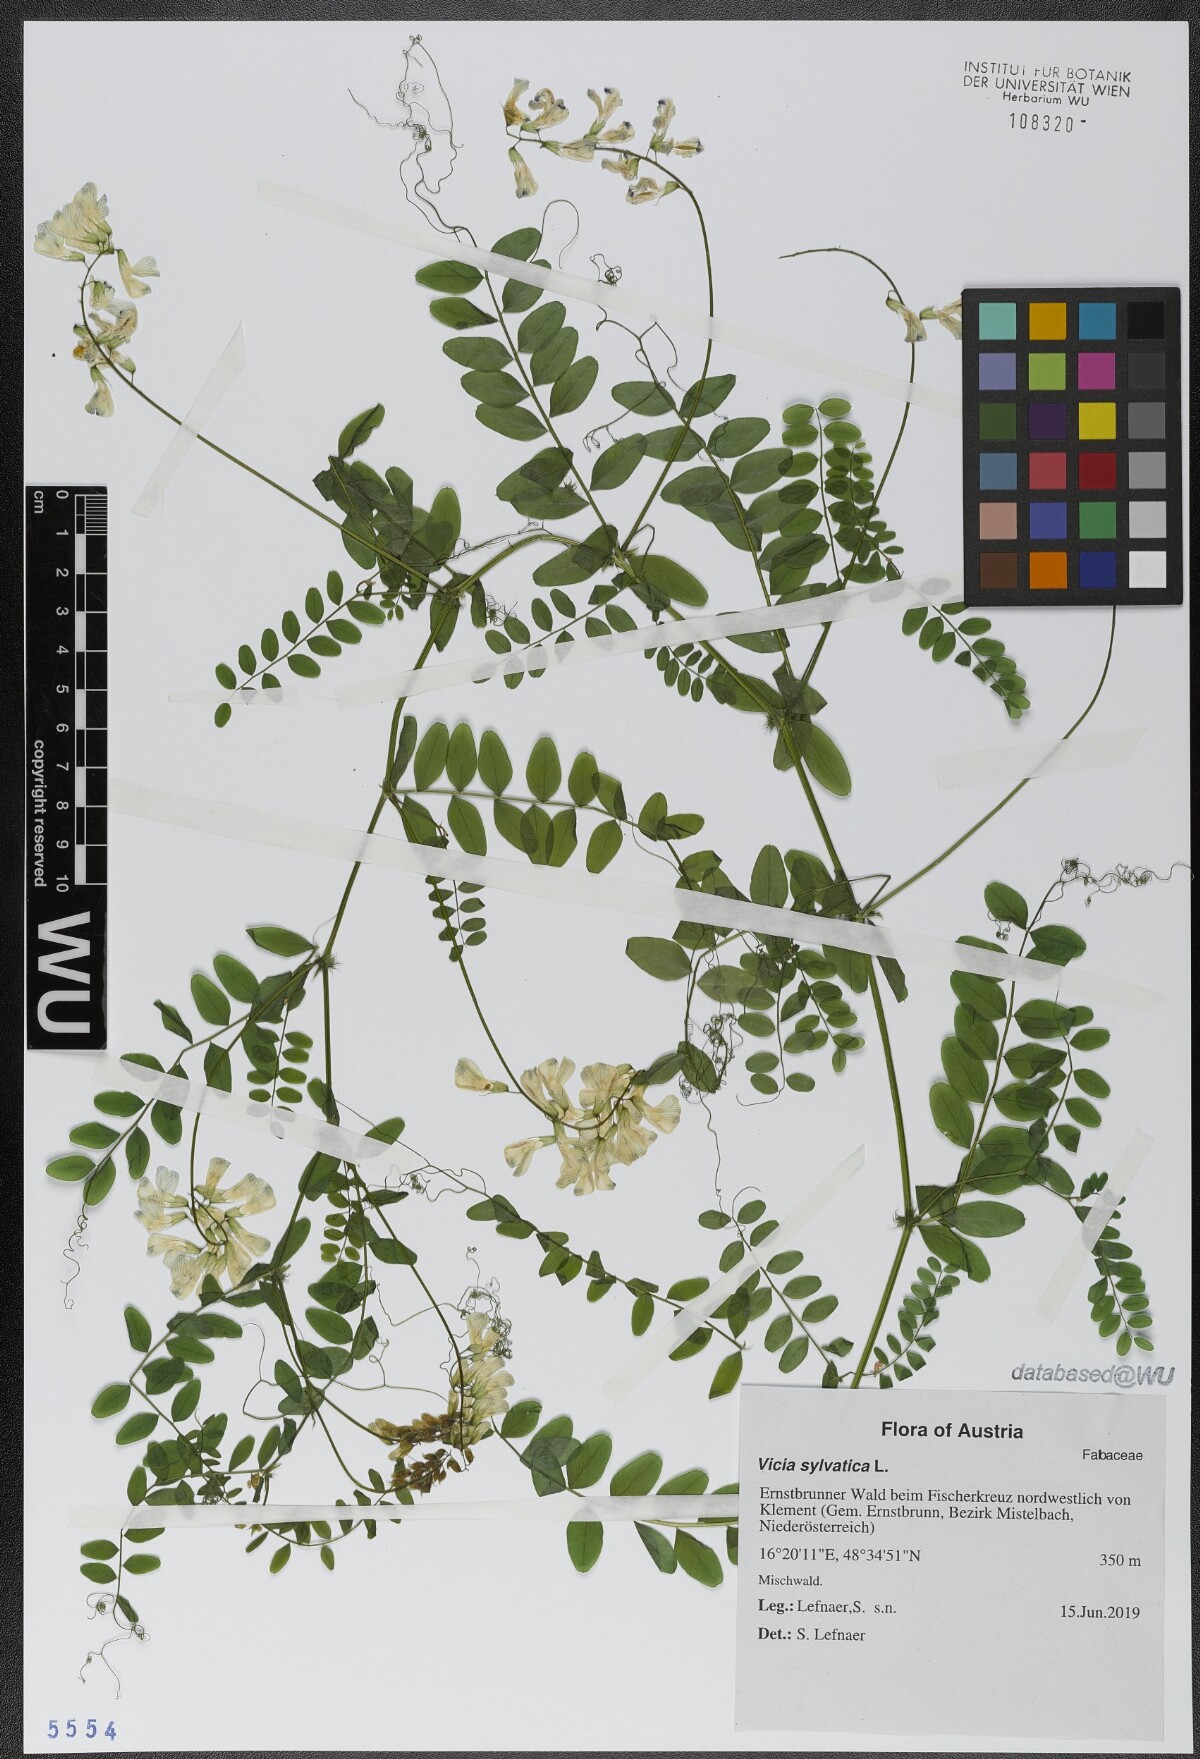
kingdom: Plantae
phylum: Tracheophyta
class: Magnoliopsida
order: Fabales
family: Fabaceae
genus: Vicia
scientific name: Vicia sylvatica
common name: Wood vetch
